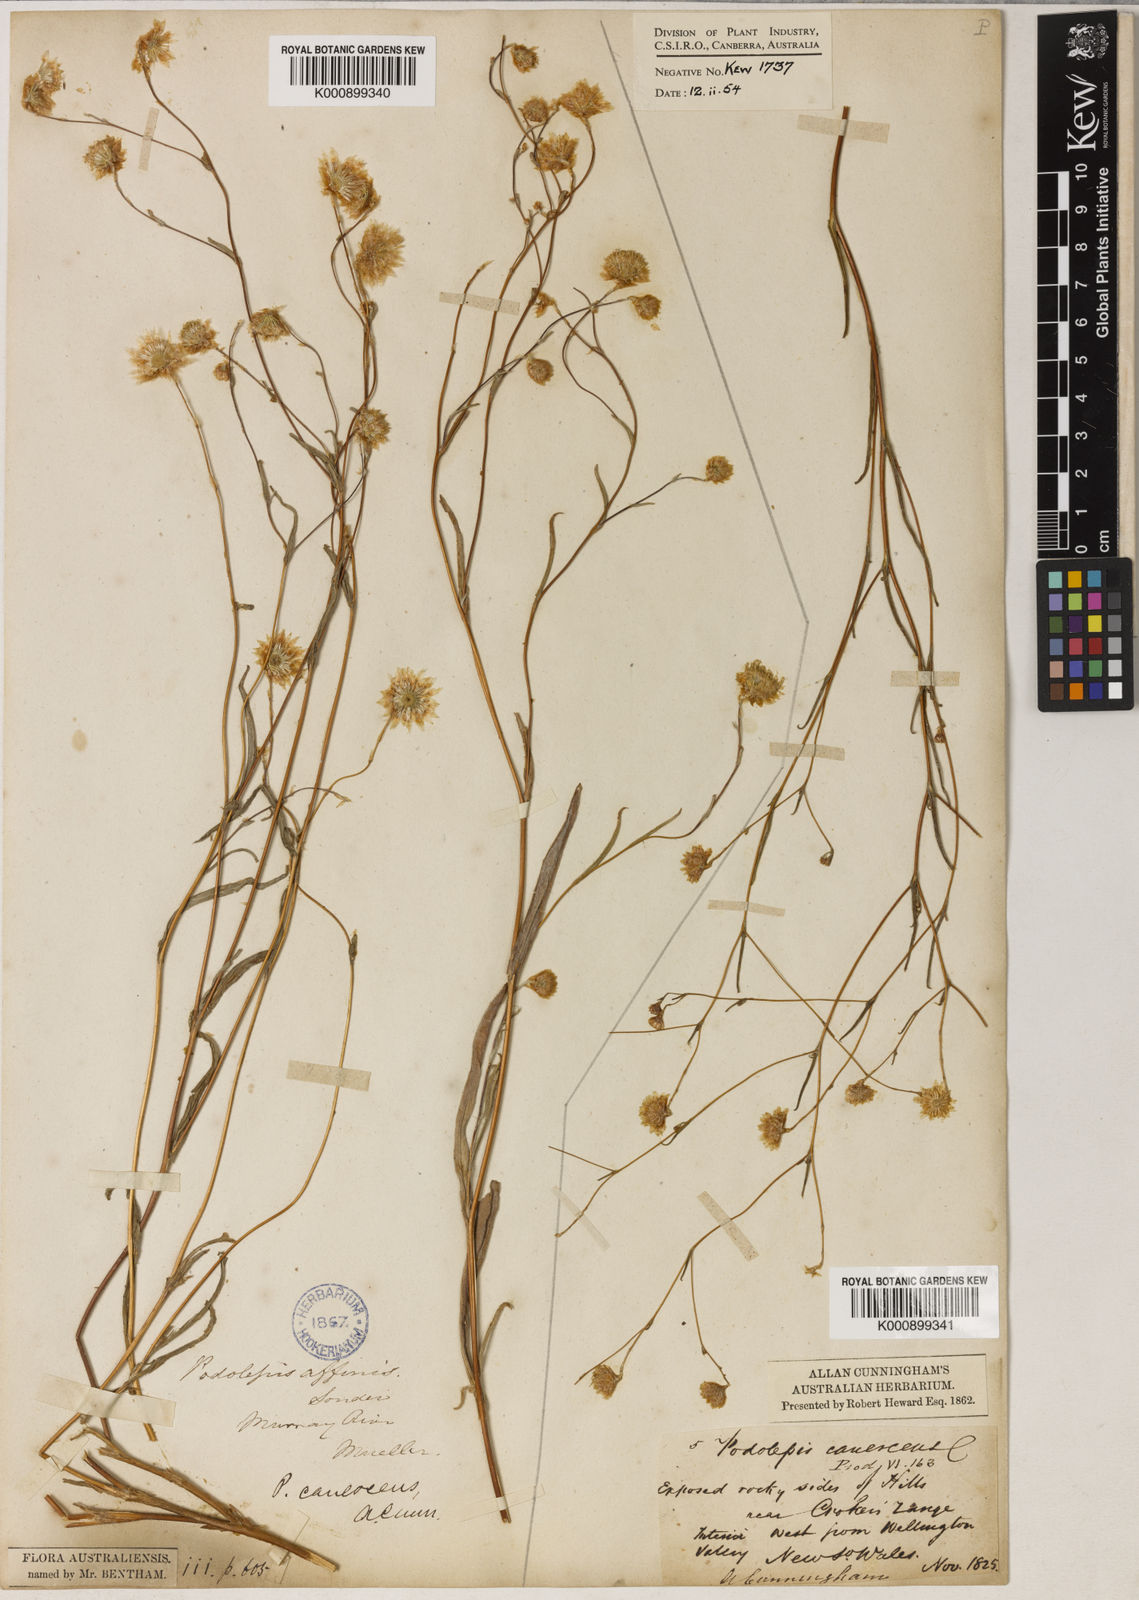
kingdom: Plantae
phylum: Tracheophyta
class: Magnoliopsida
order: Asterales
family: Asteraceae
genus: Podolepis
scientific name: Podolepis canescens
